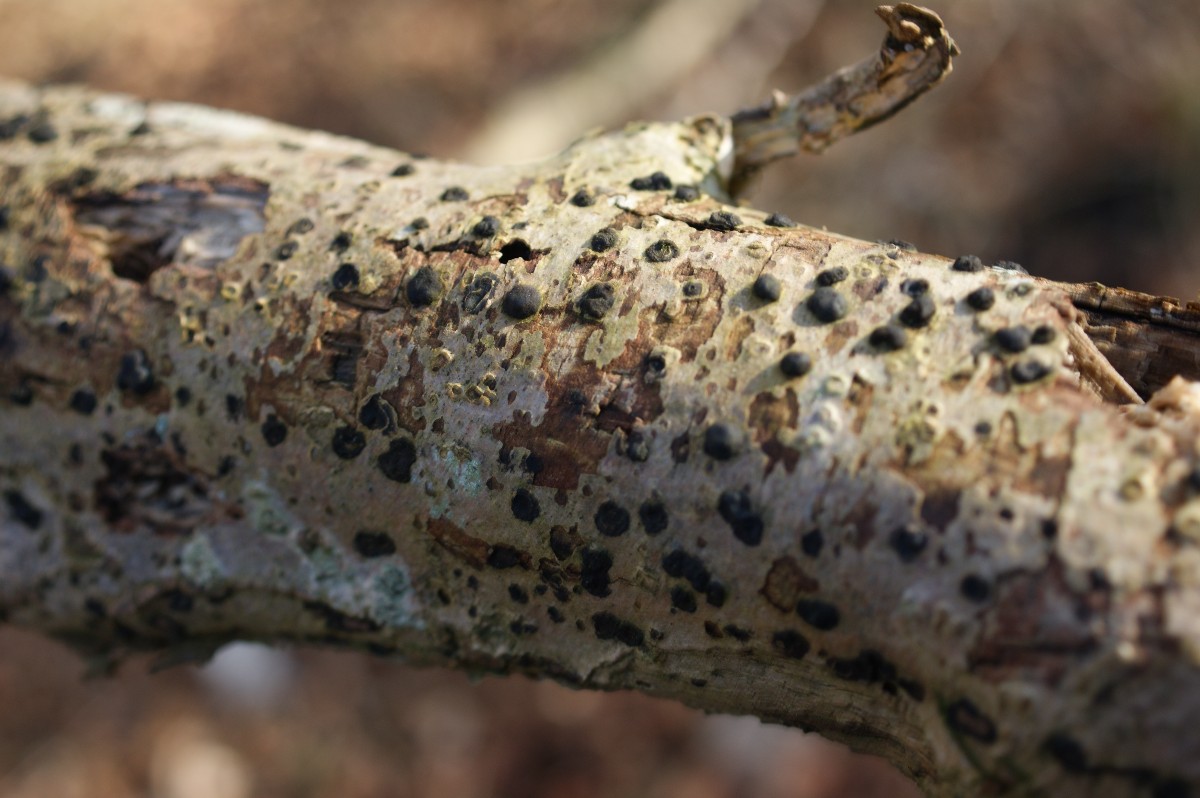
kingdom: Fungi
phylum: Ascomycota
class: Sordariomycetes
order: Xylariales
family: Hypoxylaceae
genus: Hypoxylon
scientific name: Hypoxylon fuscum
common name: kegleformet kulbær
